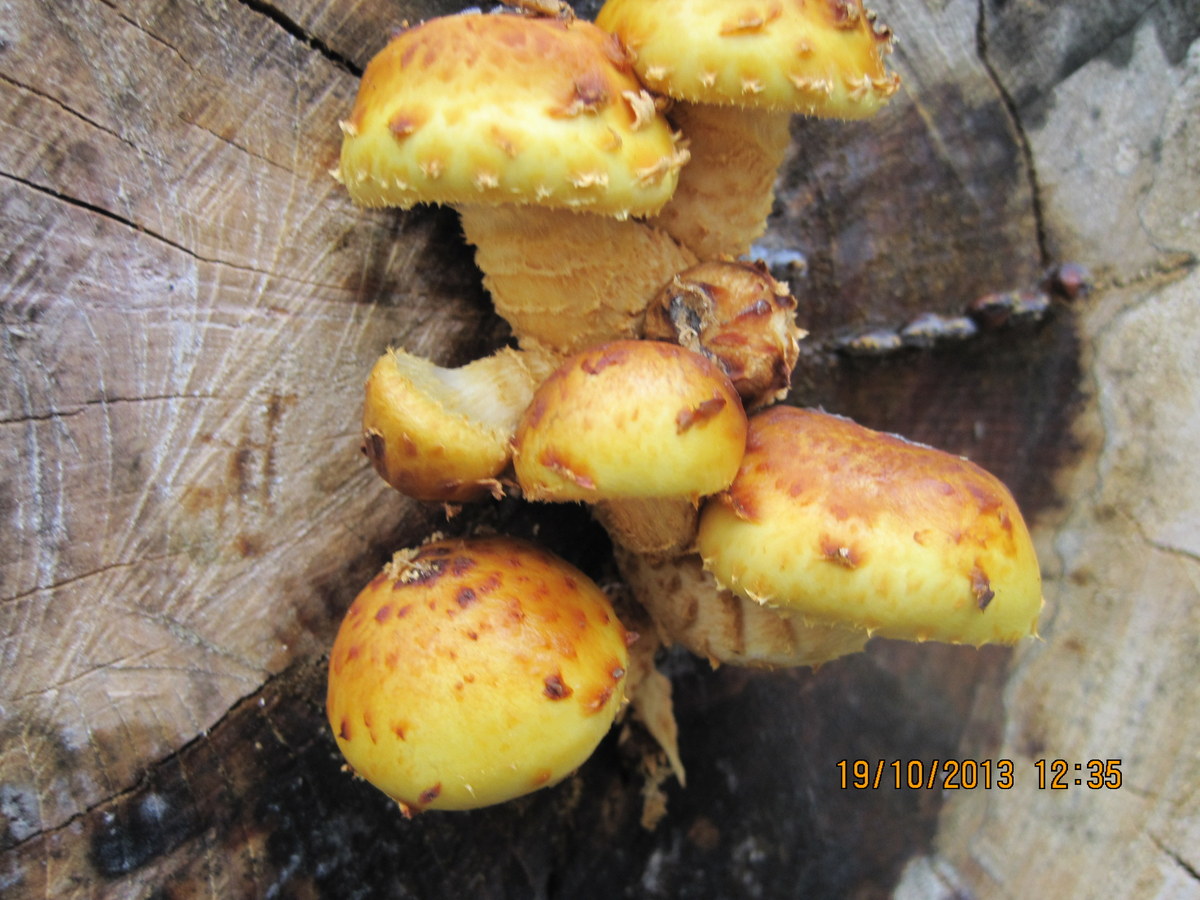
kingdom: Fungi
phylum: Basidiomycota
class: Agaricomycetes
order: Agaricales
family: Strophariaceae
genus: Pholiota
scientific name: Pholiota adiposa
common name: højtsiddende skælhat
